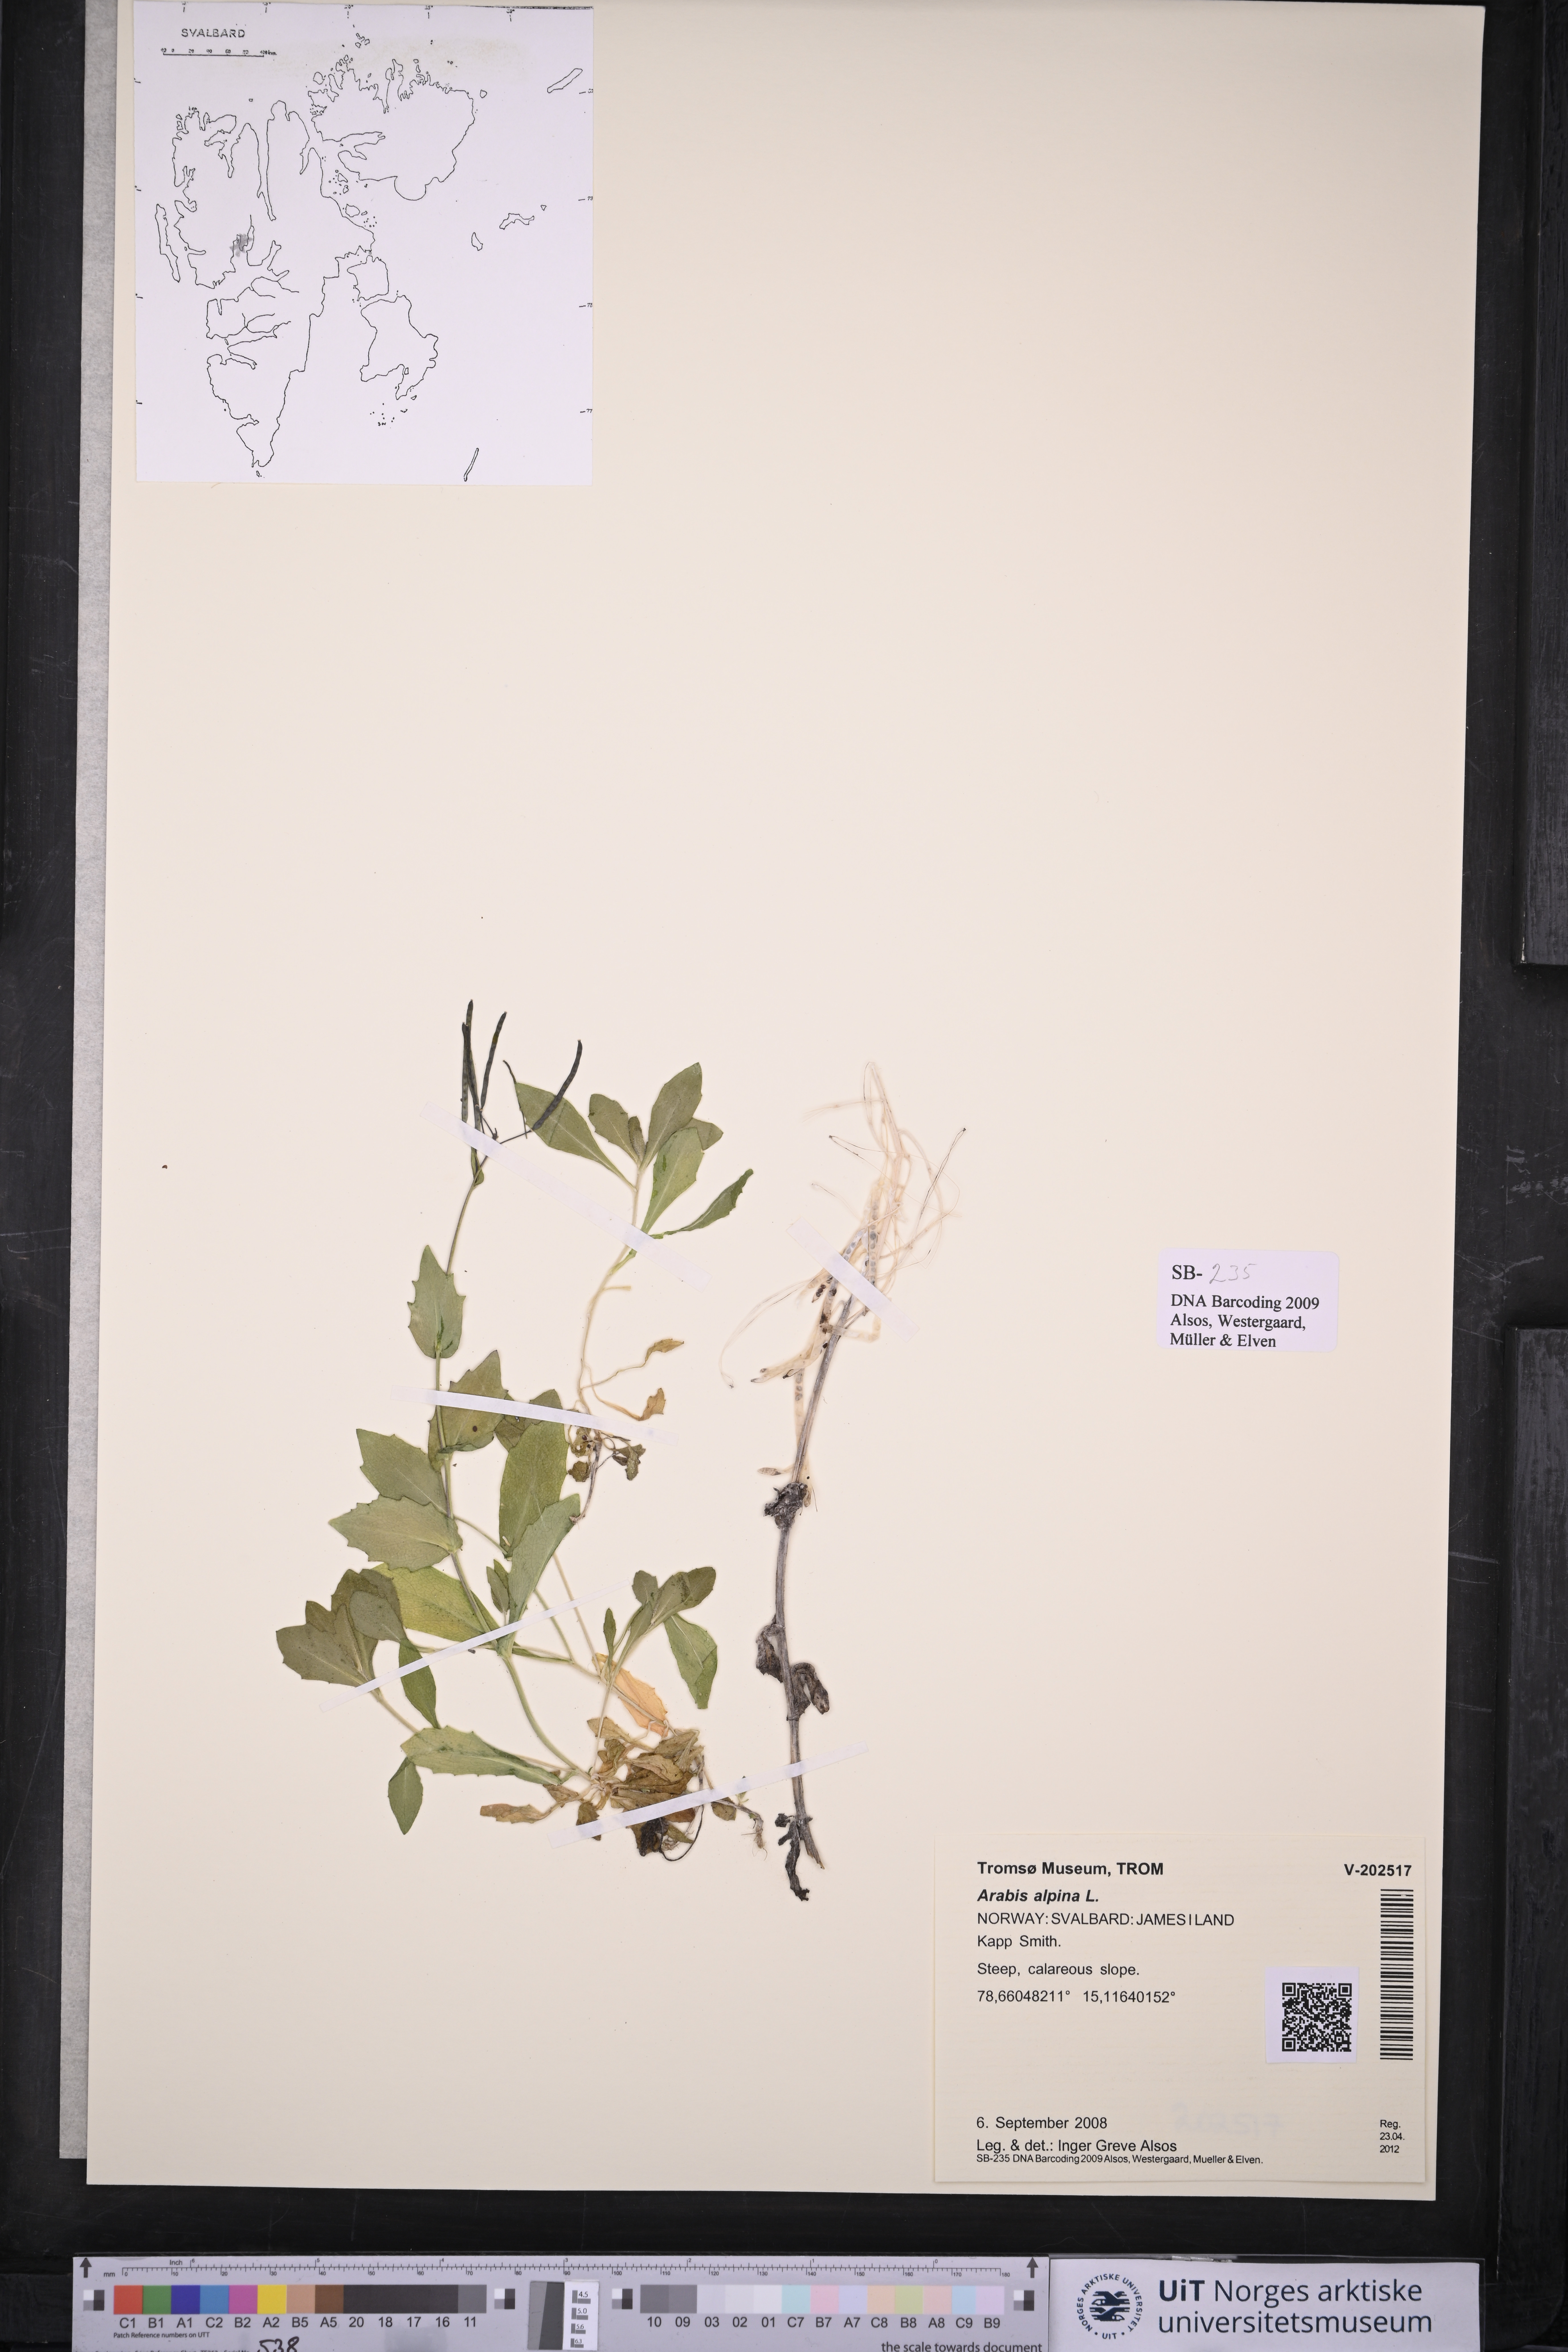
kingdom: Plantae
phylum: Tracheophyta
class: Magnoliopsida
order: Brassicales
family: Brassicaceae
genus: Arabis
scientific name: Arabis alpina
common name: Alpine rock-cress
